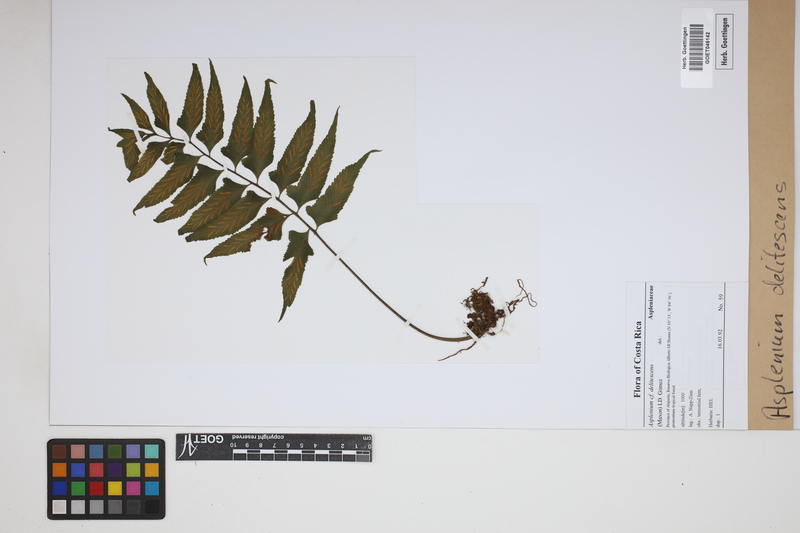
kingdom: Plantae
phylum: Tracheophyta
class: Polypodiopsida
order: Polypodiales
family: Aspleniaceae
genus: Hymenasplenium
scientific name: Hymenasplenium delitescens
